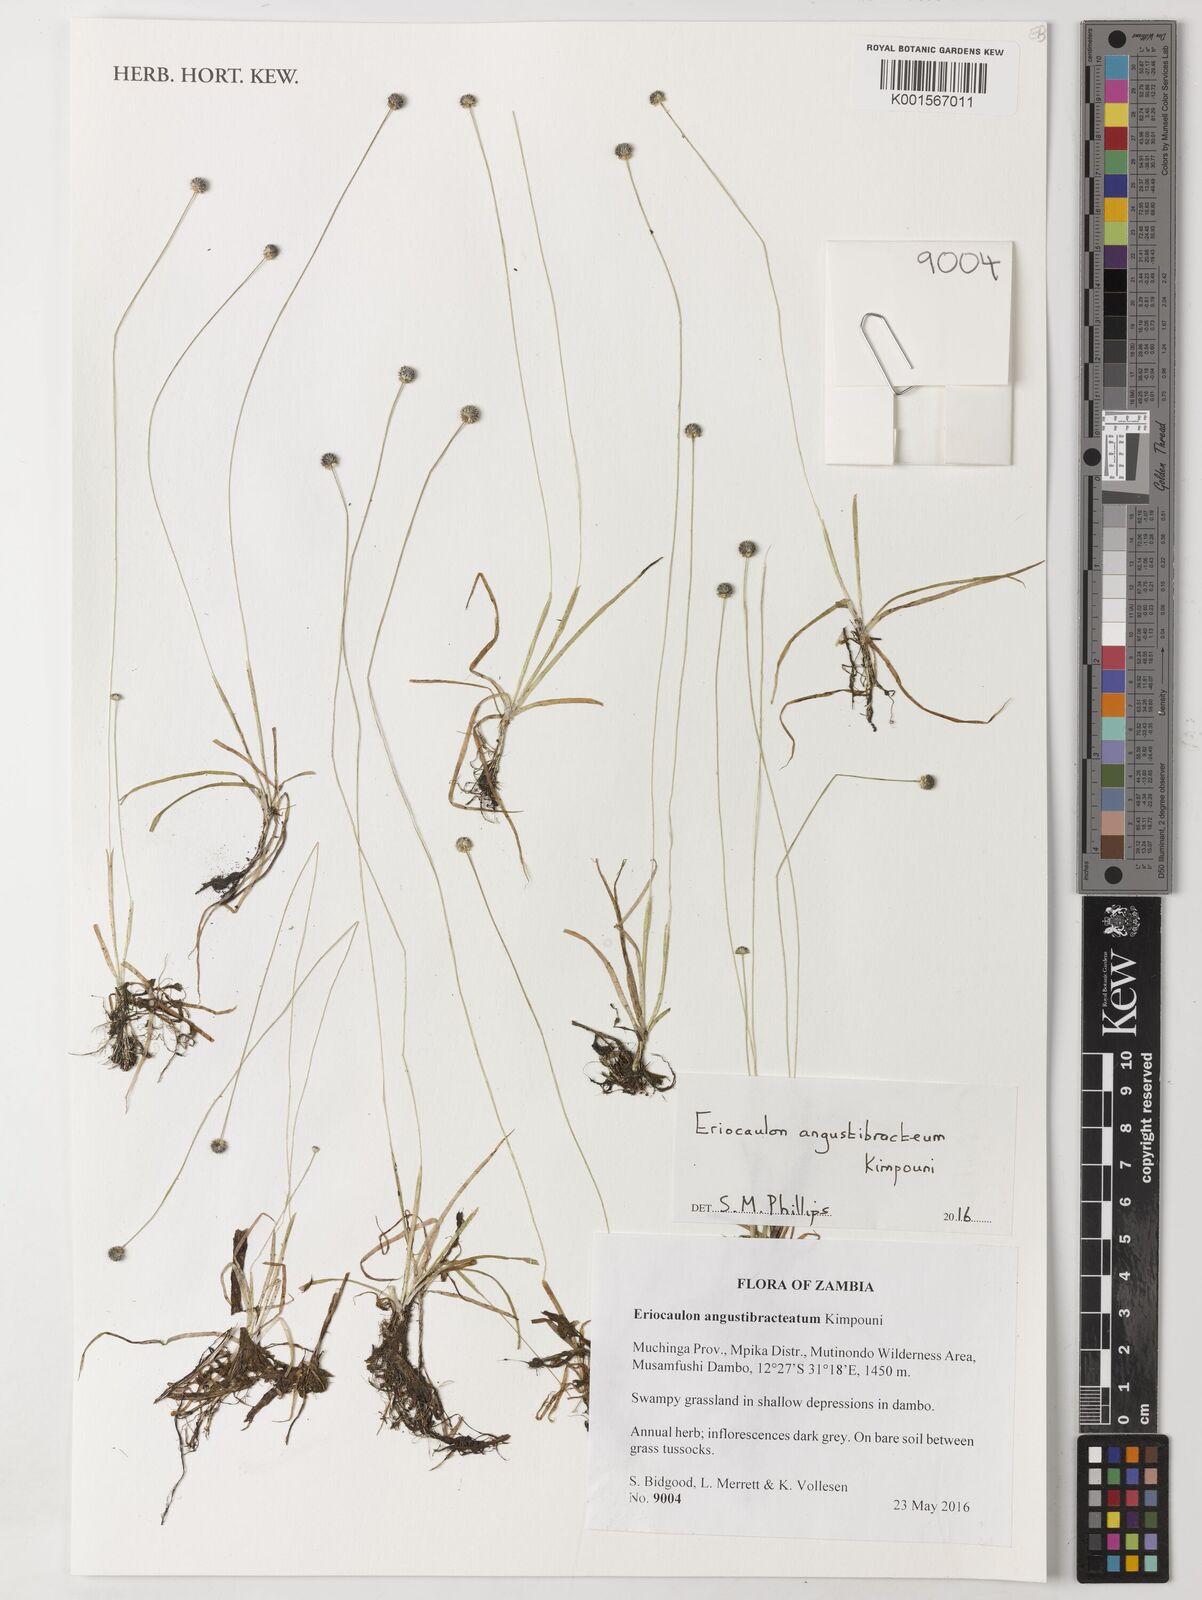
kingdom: Plantae
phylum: Tracheophyta
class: Liliopsida
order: Poales
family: Eriocaulaceae
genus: Eriocaulon
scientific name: Eriocaulon angustibracteum
